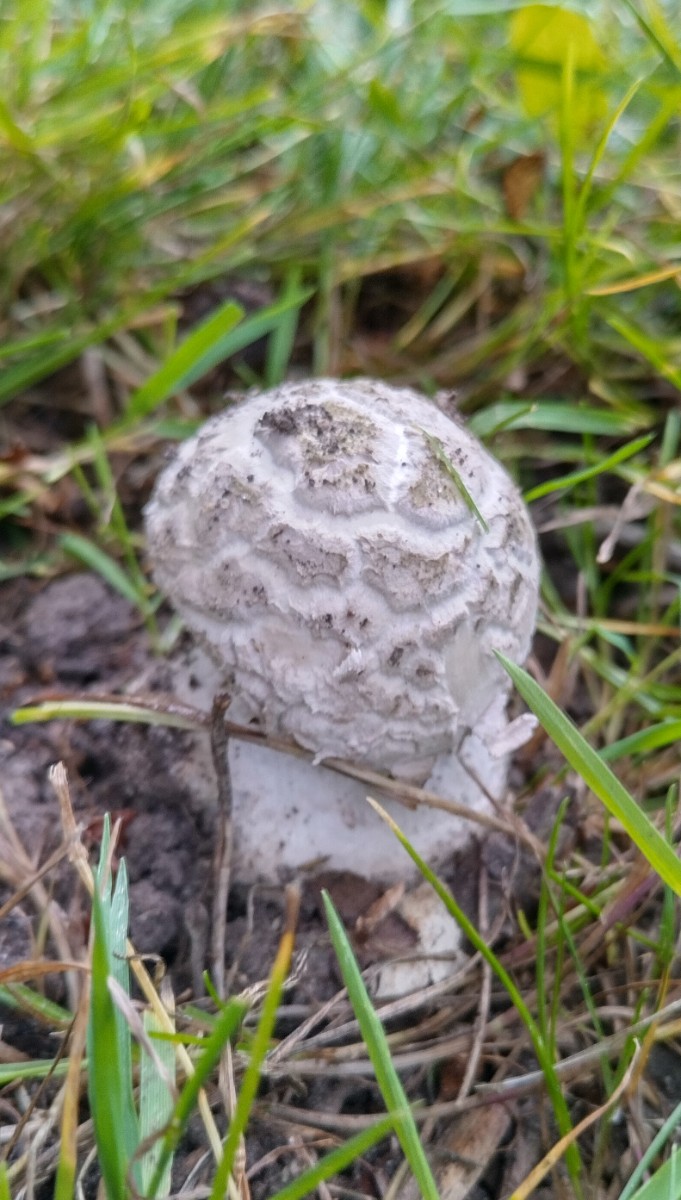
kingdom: Fungi
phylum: Basidiomycota
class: Agaricomycetes
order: Agaricales
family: Amanitaceae
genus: Amanita
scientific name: Amanita
